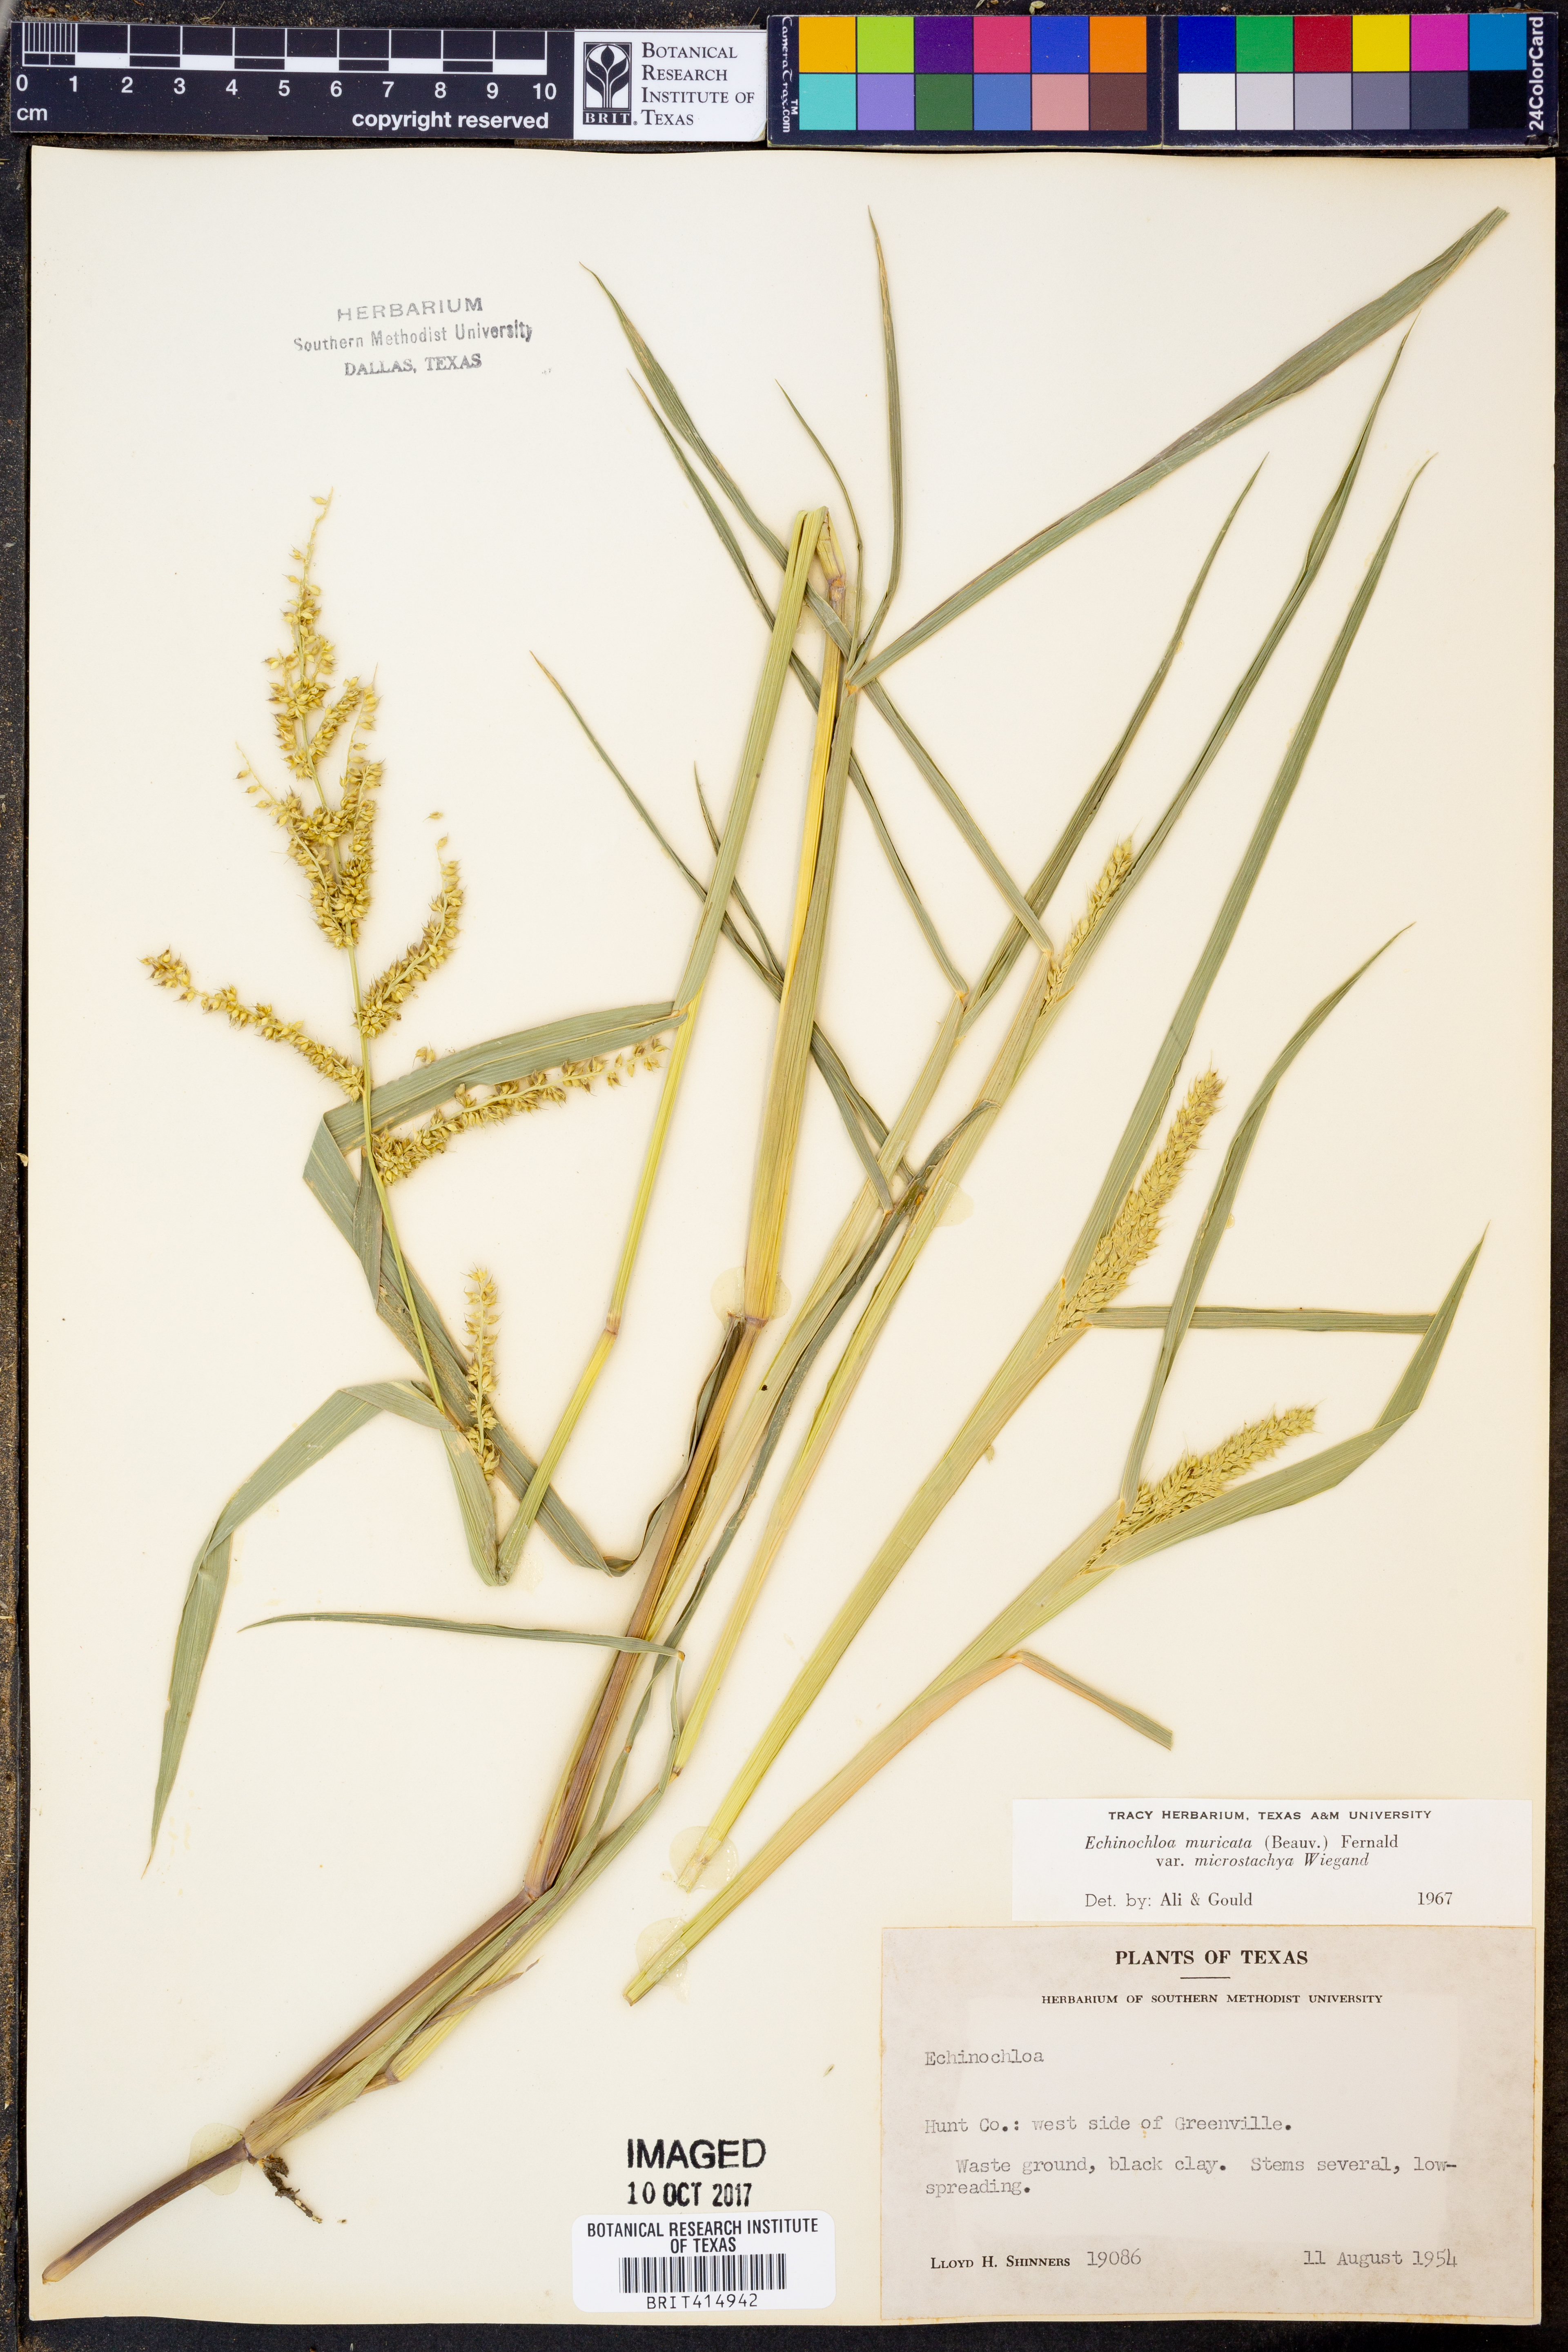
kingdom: Plantae
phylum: Tracheophyta
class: Liliopsida
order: Poales
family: Poaceae
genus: Echinochloa
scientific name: Echinochloa muricata
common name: American barnyard grass
